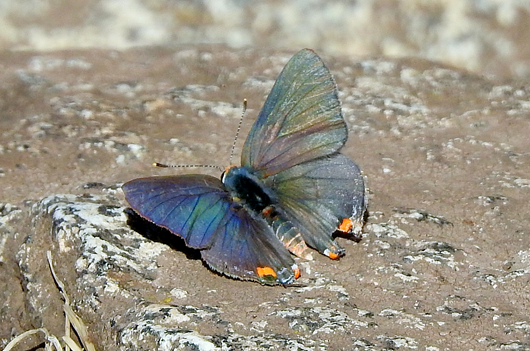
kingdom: Animalia
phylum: Arthropoda
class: Insecta
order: Lepidoptera
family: Lycaenidae
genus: Strymon
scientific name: Strymon melinus
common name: Gray Hairstreak
